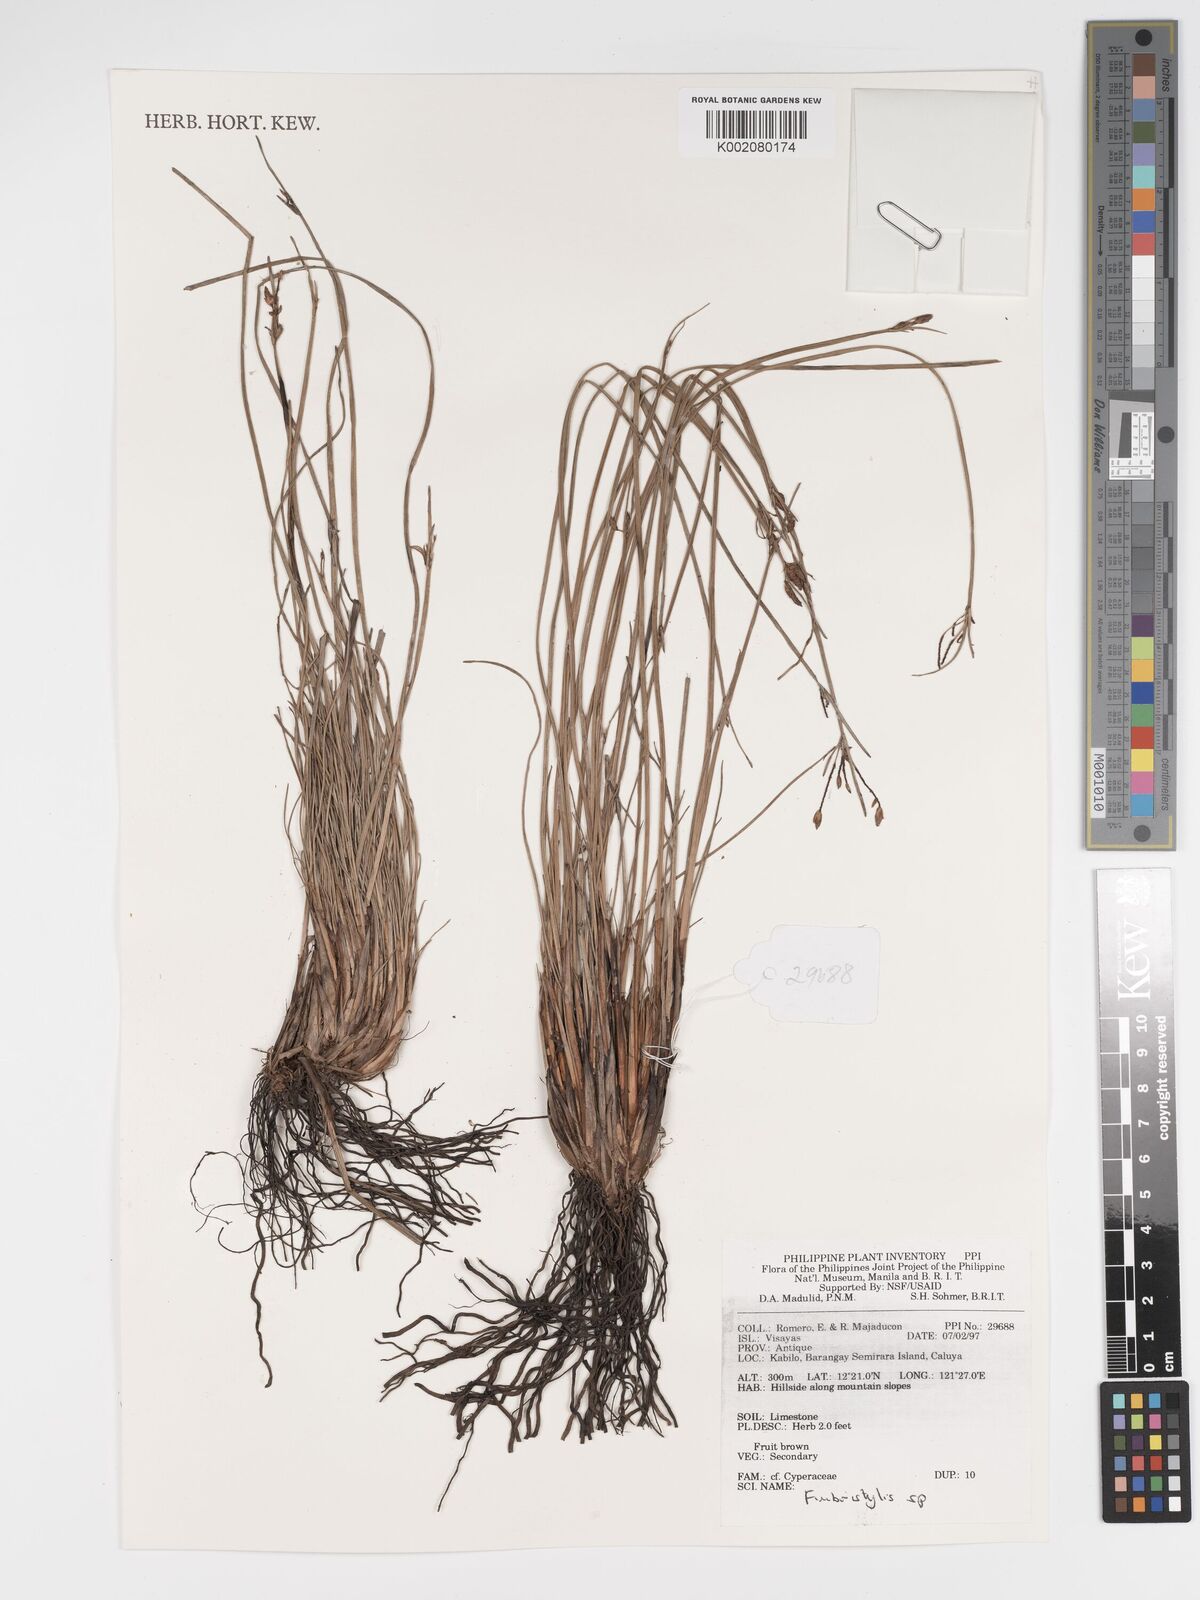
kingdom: Plantae
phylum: Tracheophyta
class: Liliopsida
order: Poales
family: Cyperaceae
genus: Fimbristylis
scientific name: Fimbristylis
